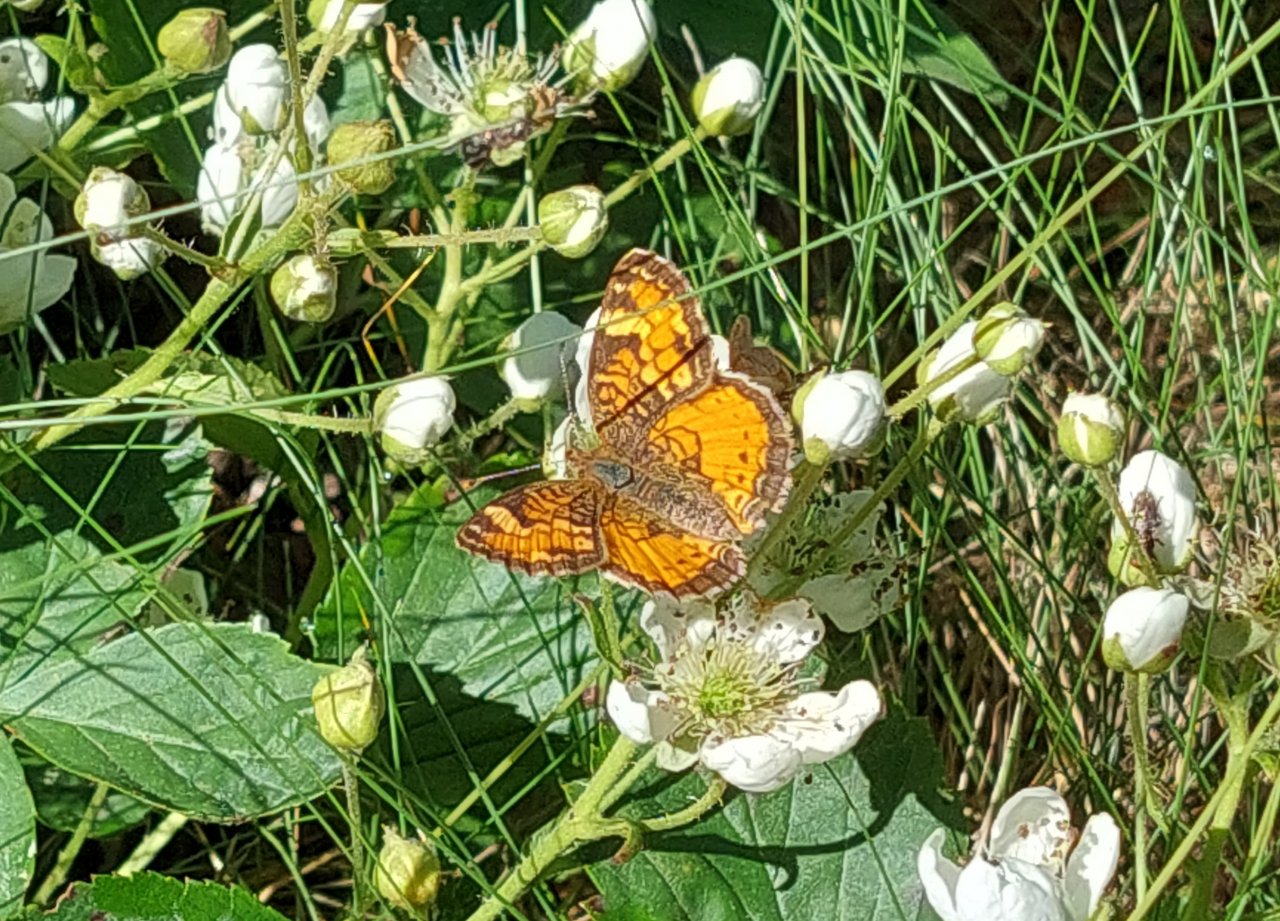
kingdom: Animalia
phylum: Arthropoda
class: Insecta
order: Lepidoptera
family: Nymphalidae
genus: Phyciodes
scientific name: Phyciodes tharos
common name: Northern Crescent
